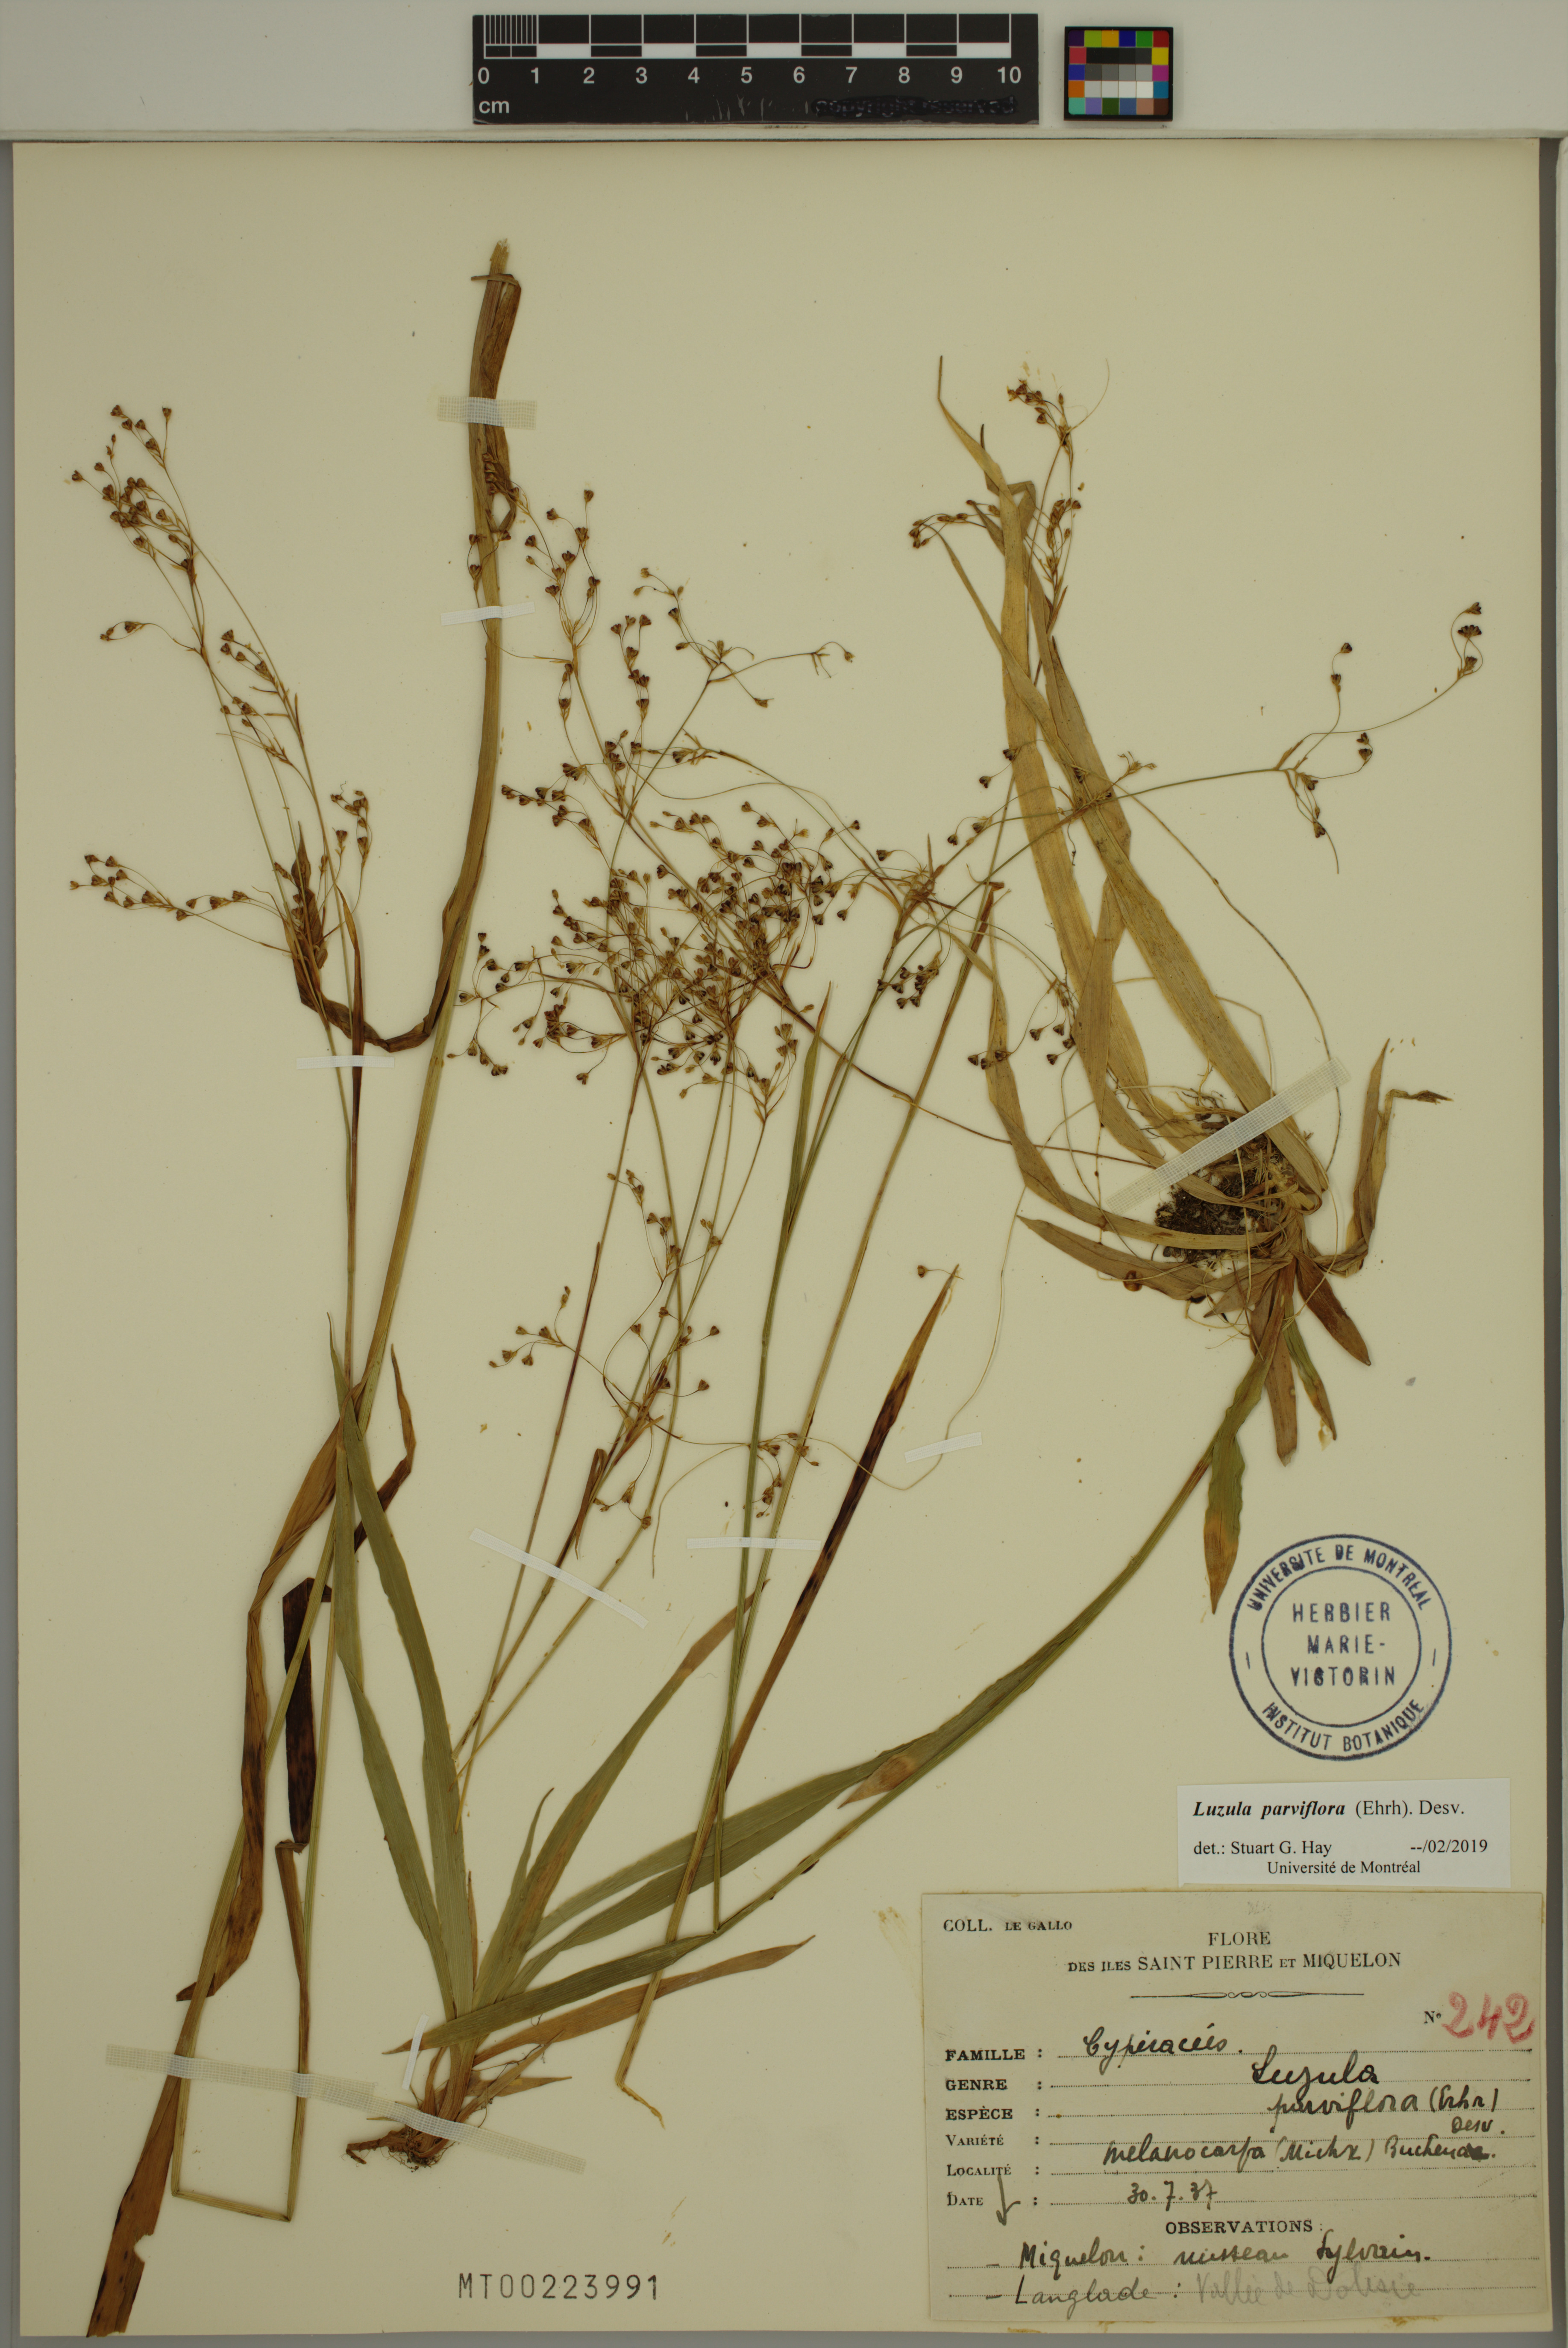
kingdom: Plantae
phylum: Tracheophyta
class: Liliopsida
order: Poales
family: Juncaceae
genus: Luzula
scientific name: Luzula parviflora
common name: Millet woodrush
